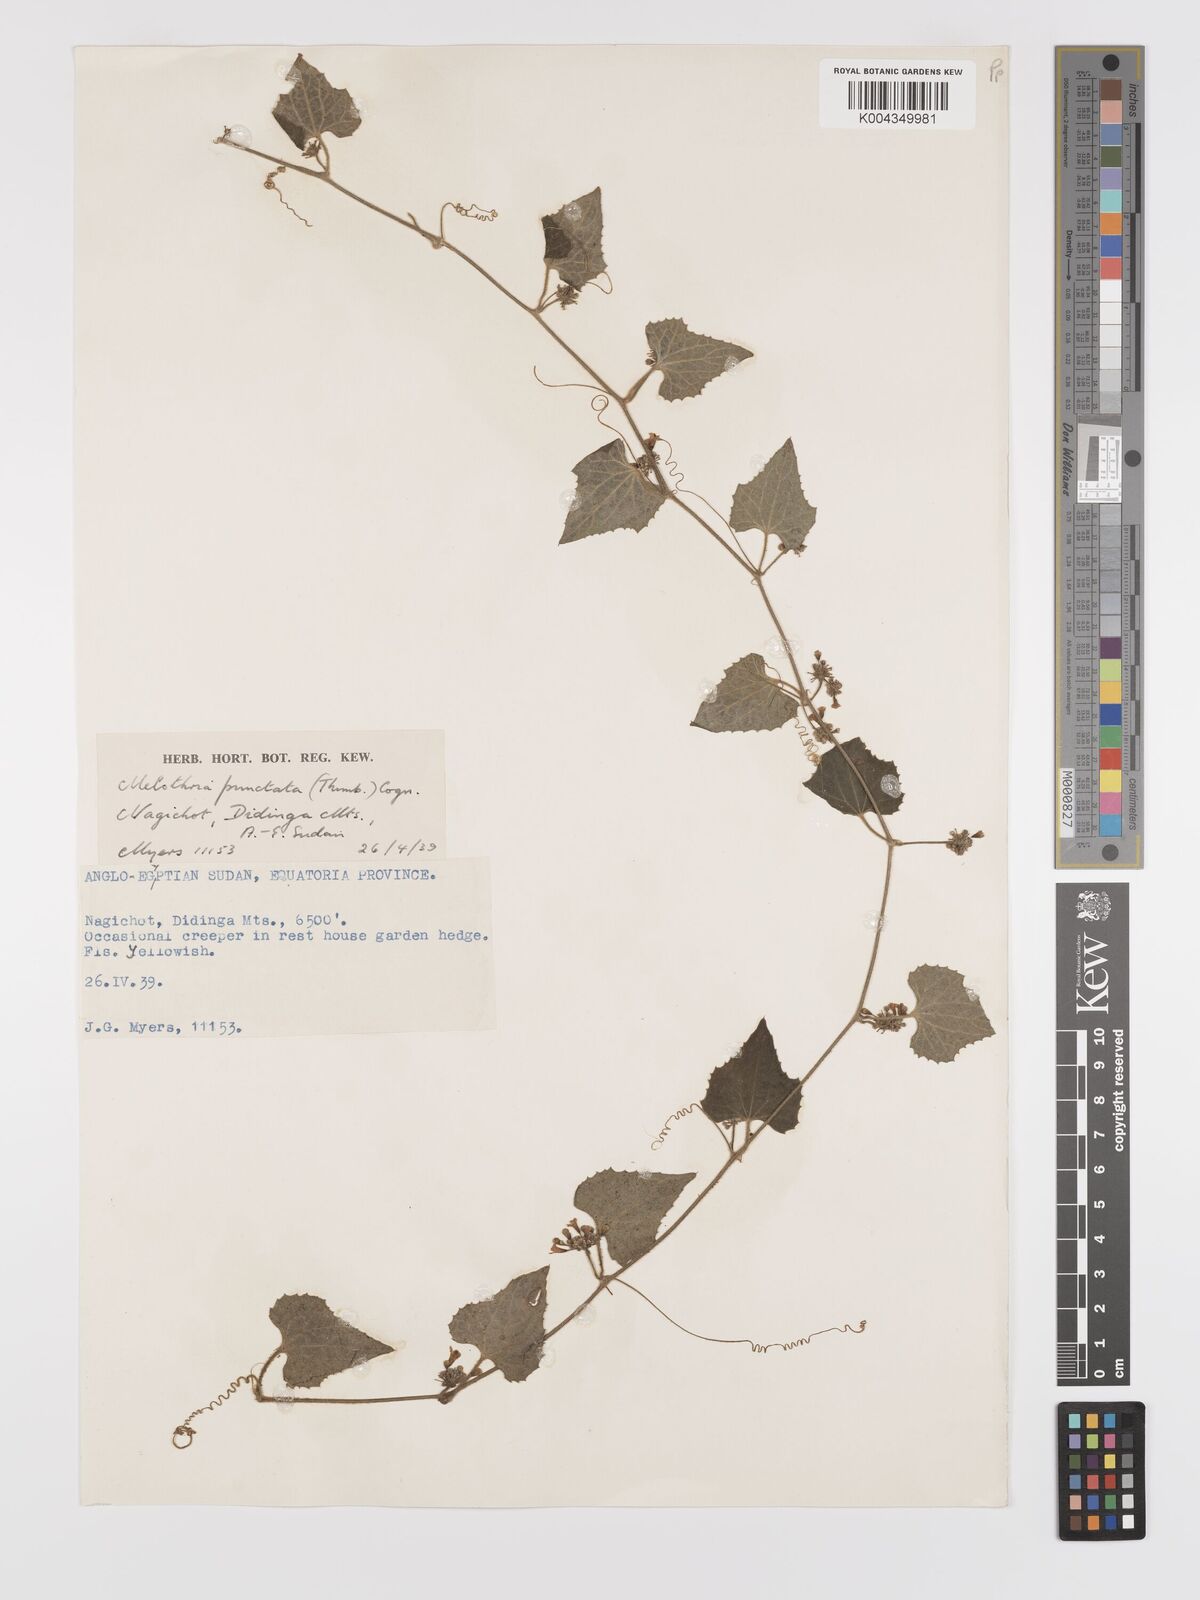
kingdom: Plantae
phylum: Tracheophyta
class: Magnoliopsida
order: Cucurbitales
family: Cucurbitaceae
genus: Zehneria
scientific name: Zehneria scabra
